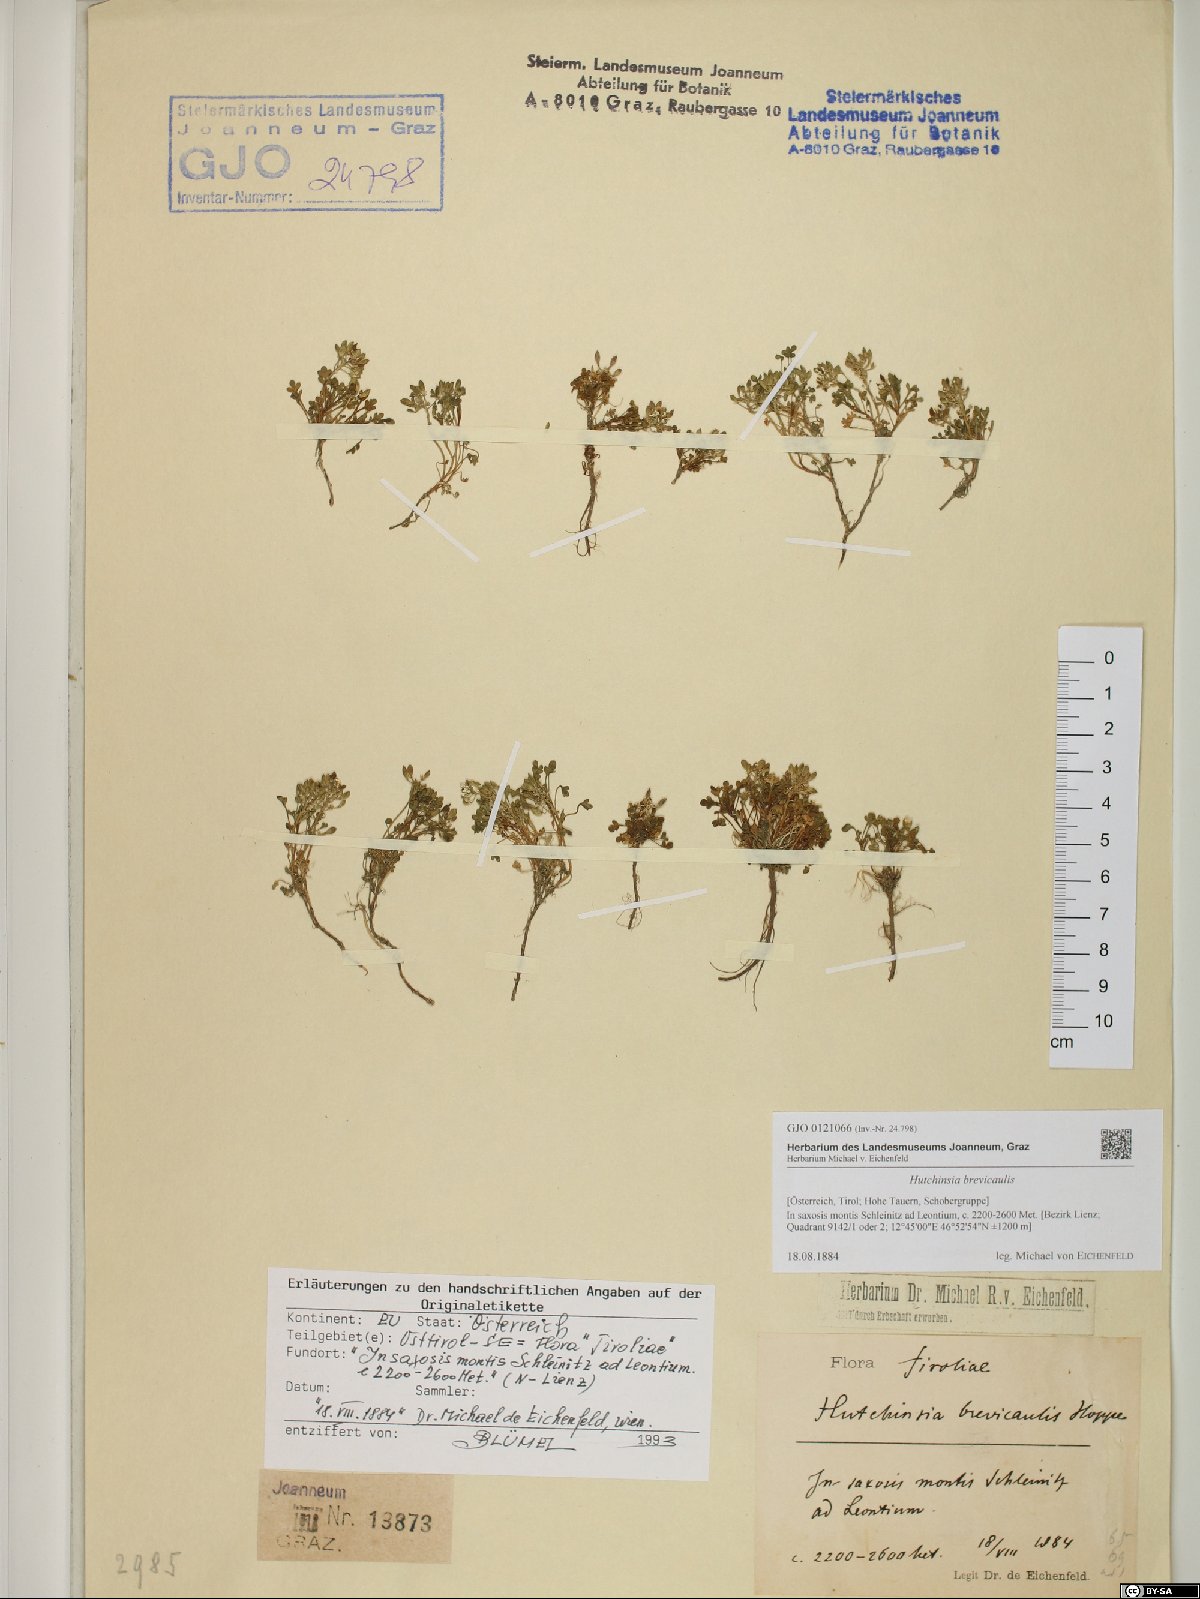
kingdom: Plantae
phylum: Tracheophyta
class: Magnoliopsida
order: Brassicales
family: Brassicaceae
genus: Hornungia
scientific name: Hornungia alpina
